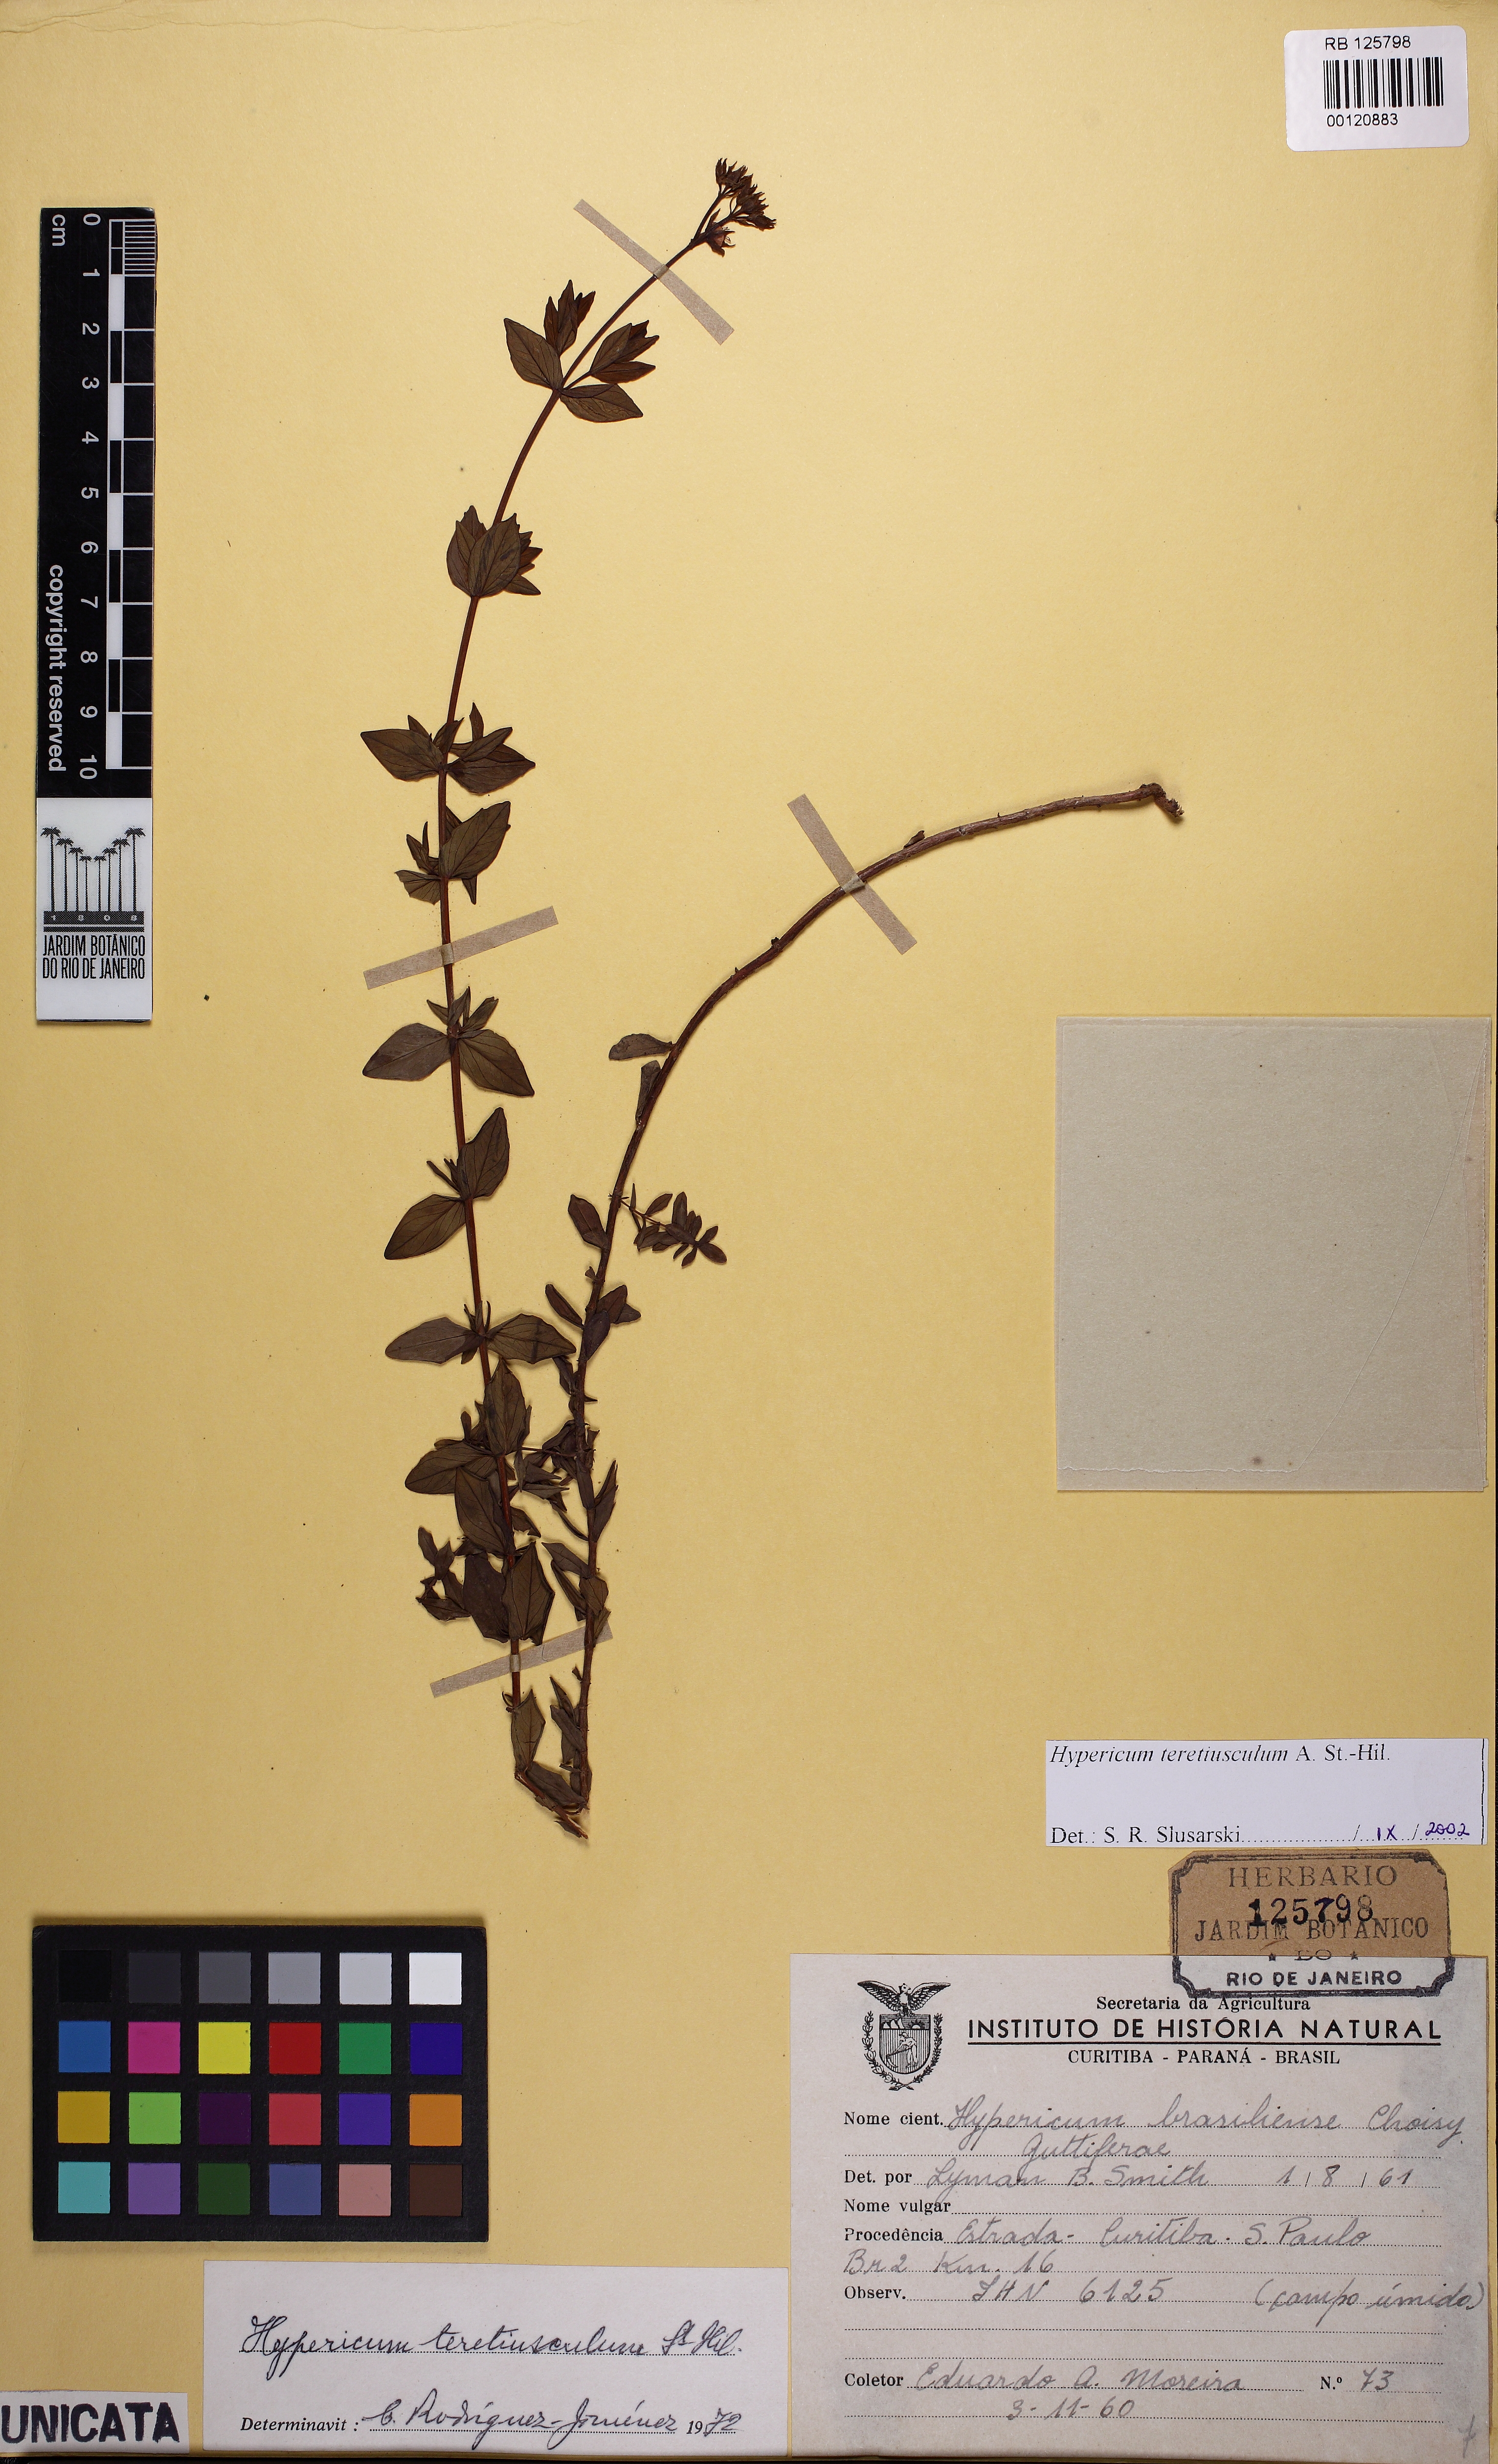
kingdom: Plantae
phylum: Tracheophyta
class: Magnoliopsida
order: Malpighiales
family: Hypericaceae
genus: Hypericum
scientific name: Hypericum teretiusculum
